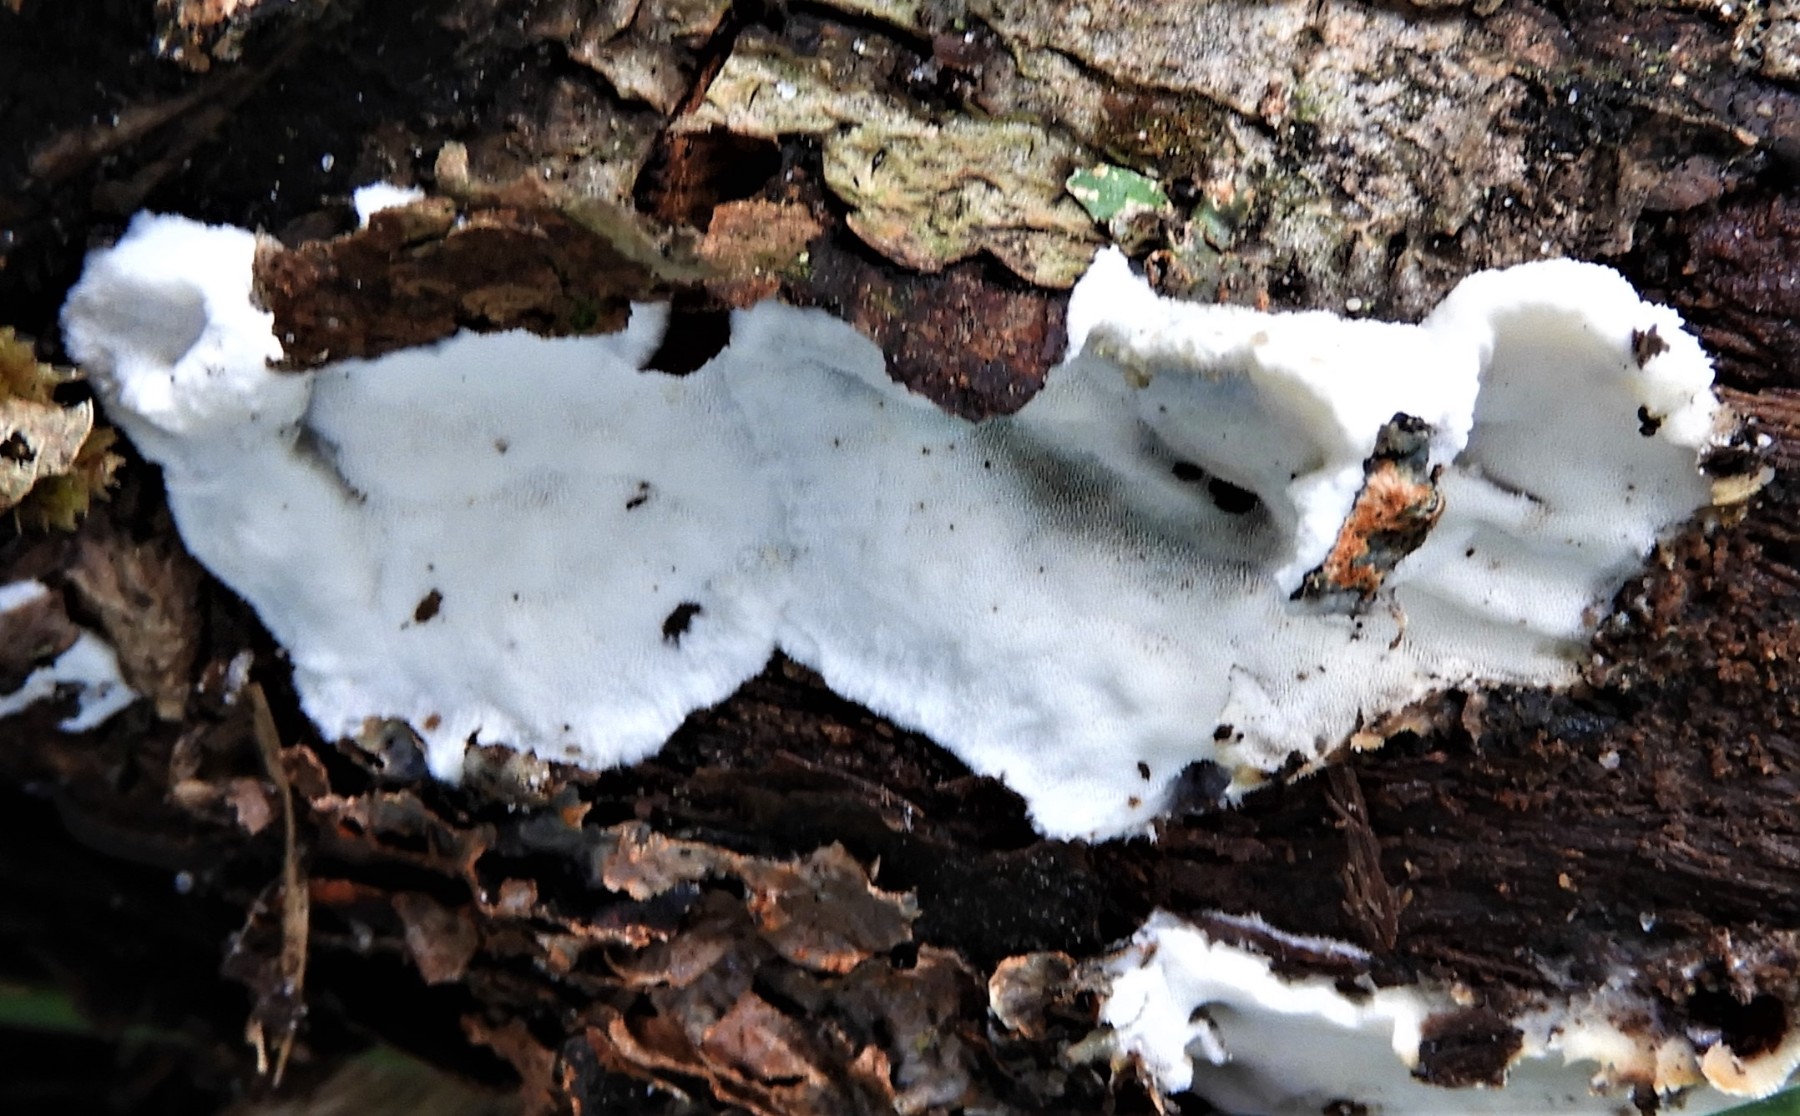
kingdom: Fungi
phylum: Basidiomycota
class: Agaricomycetes
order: Polyporales
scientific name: Polyporales
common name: poresvampordenen
